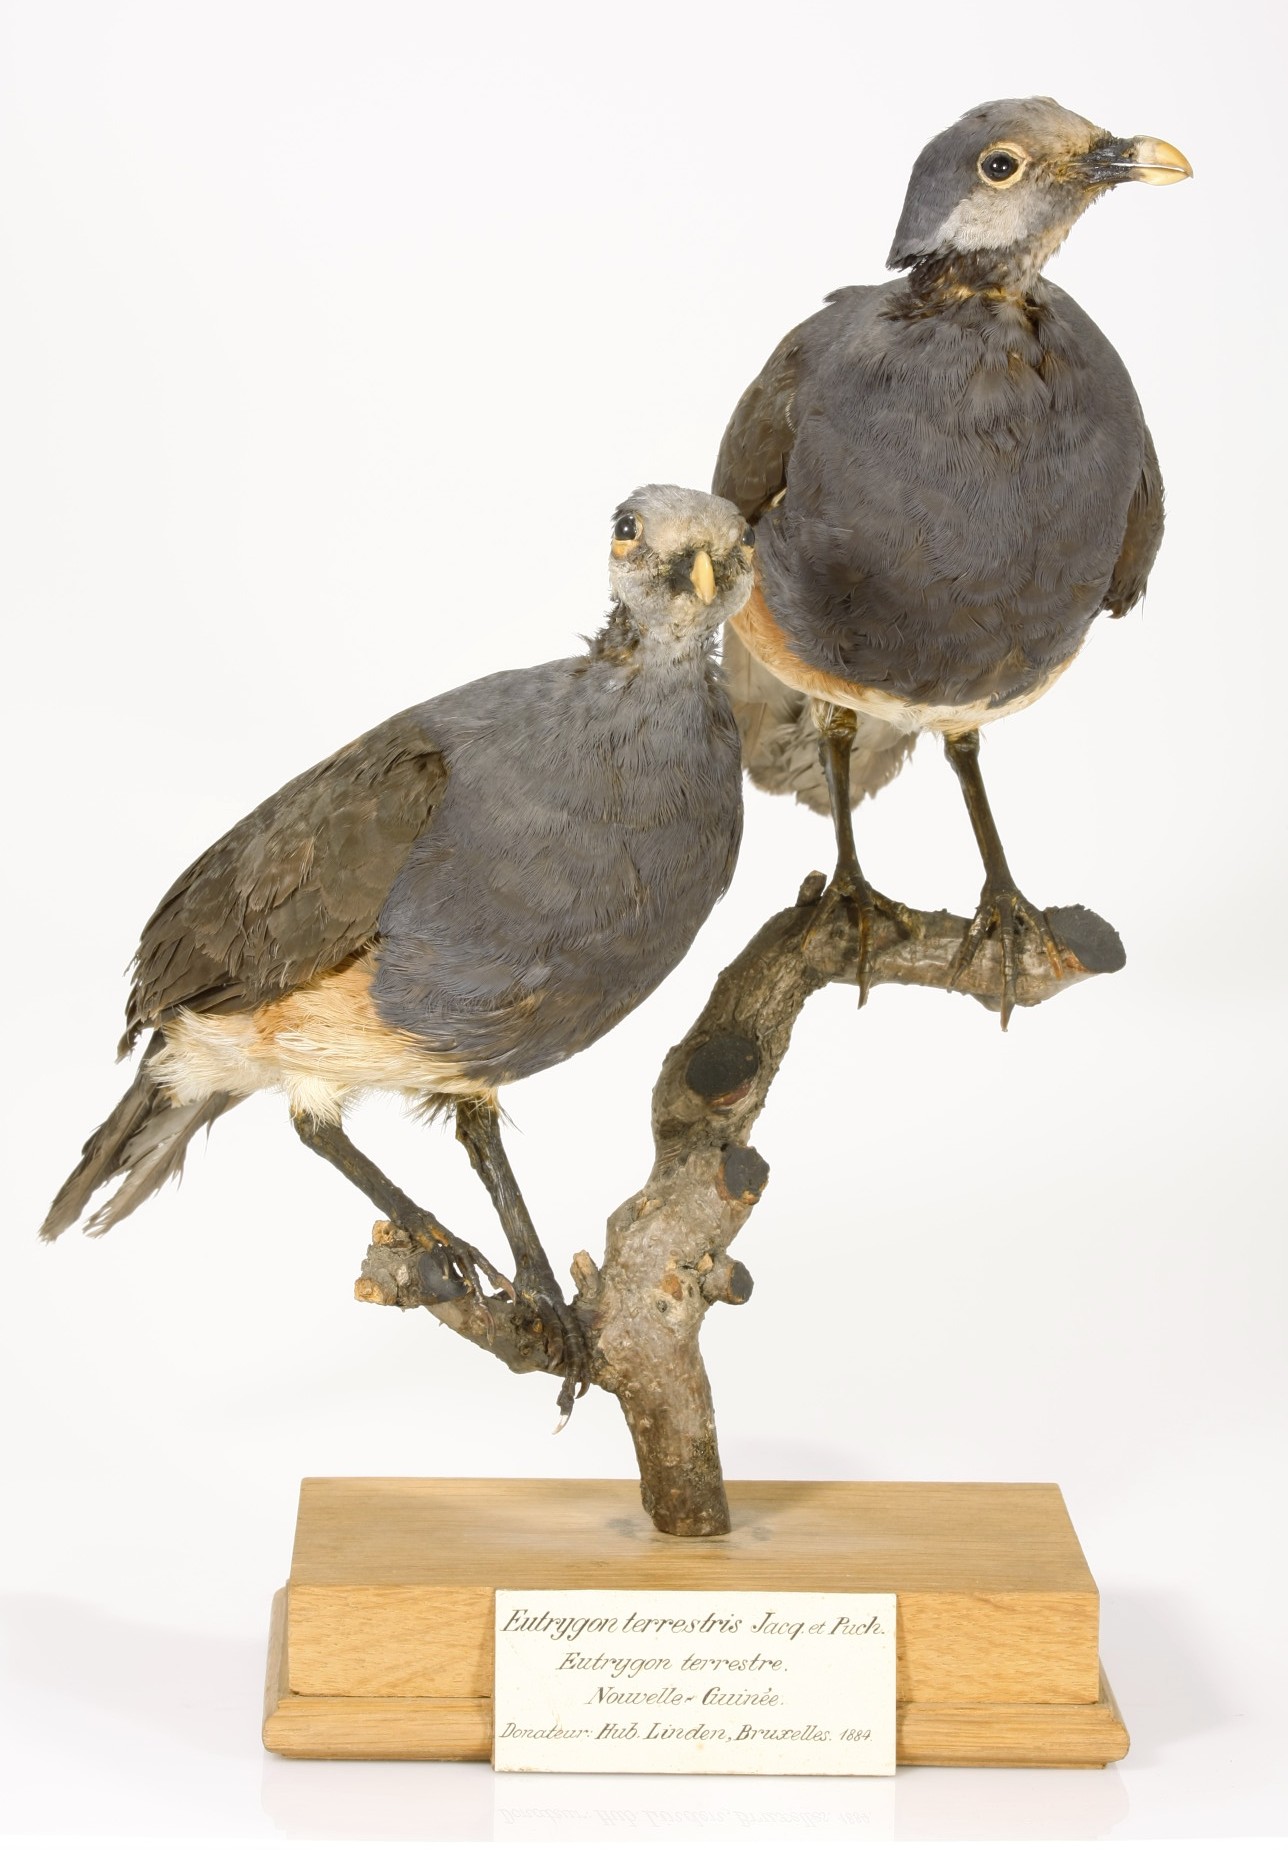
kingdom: Animalia
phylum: Chordata
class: Aves
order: Columbiformes
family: Columbidae
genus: Trugon
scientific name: Trugon terrestris
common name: Thick-billed ground pigeon
